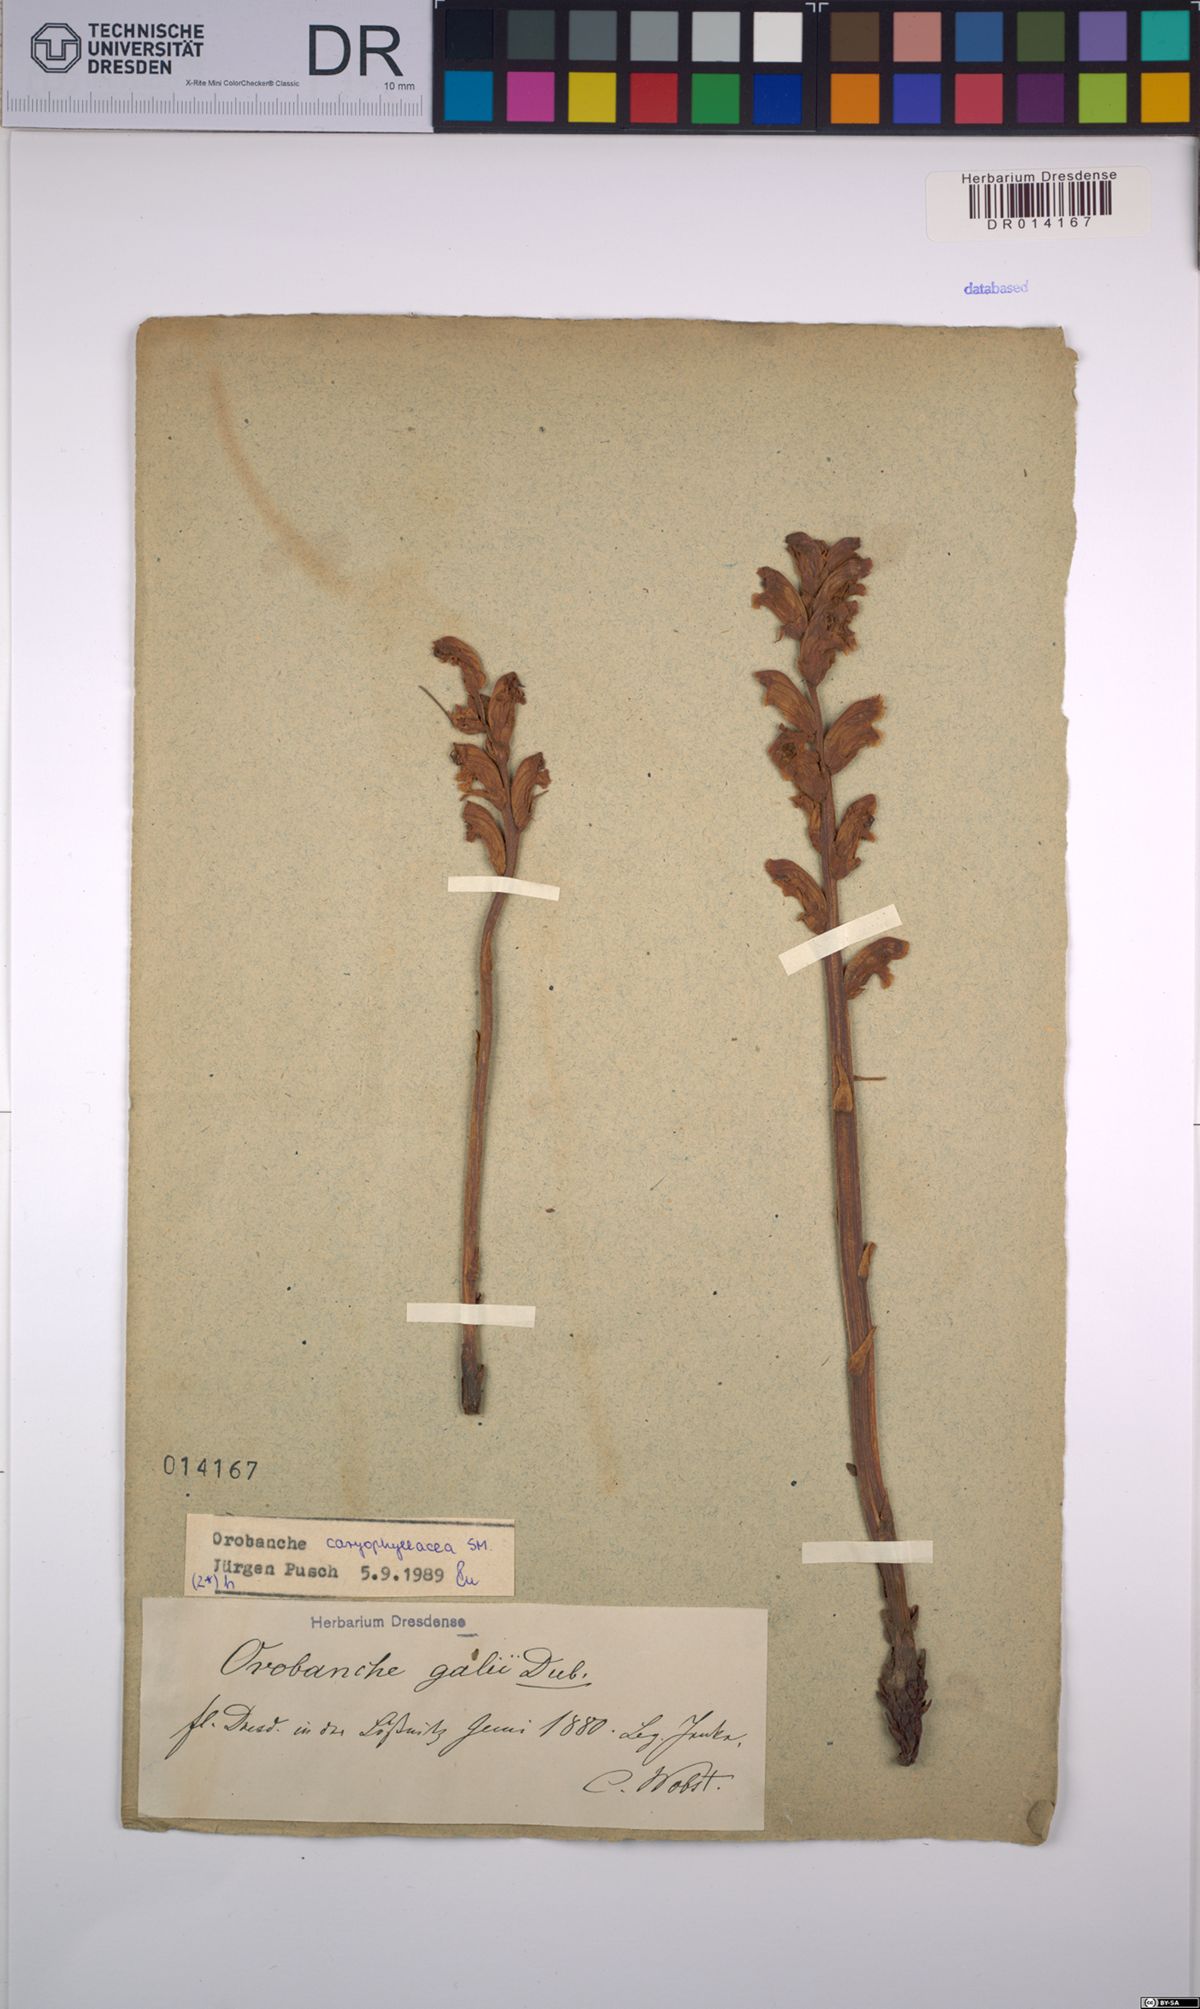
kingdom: Plantae
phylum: Tracheophyta
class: Magnoliopsida
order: Lamiales
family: Orobanchaceae
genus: Orobanche
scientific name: Orobanche caryophyllacea
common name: Bedstraw broomrape
